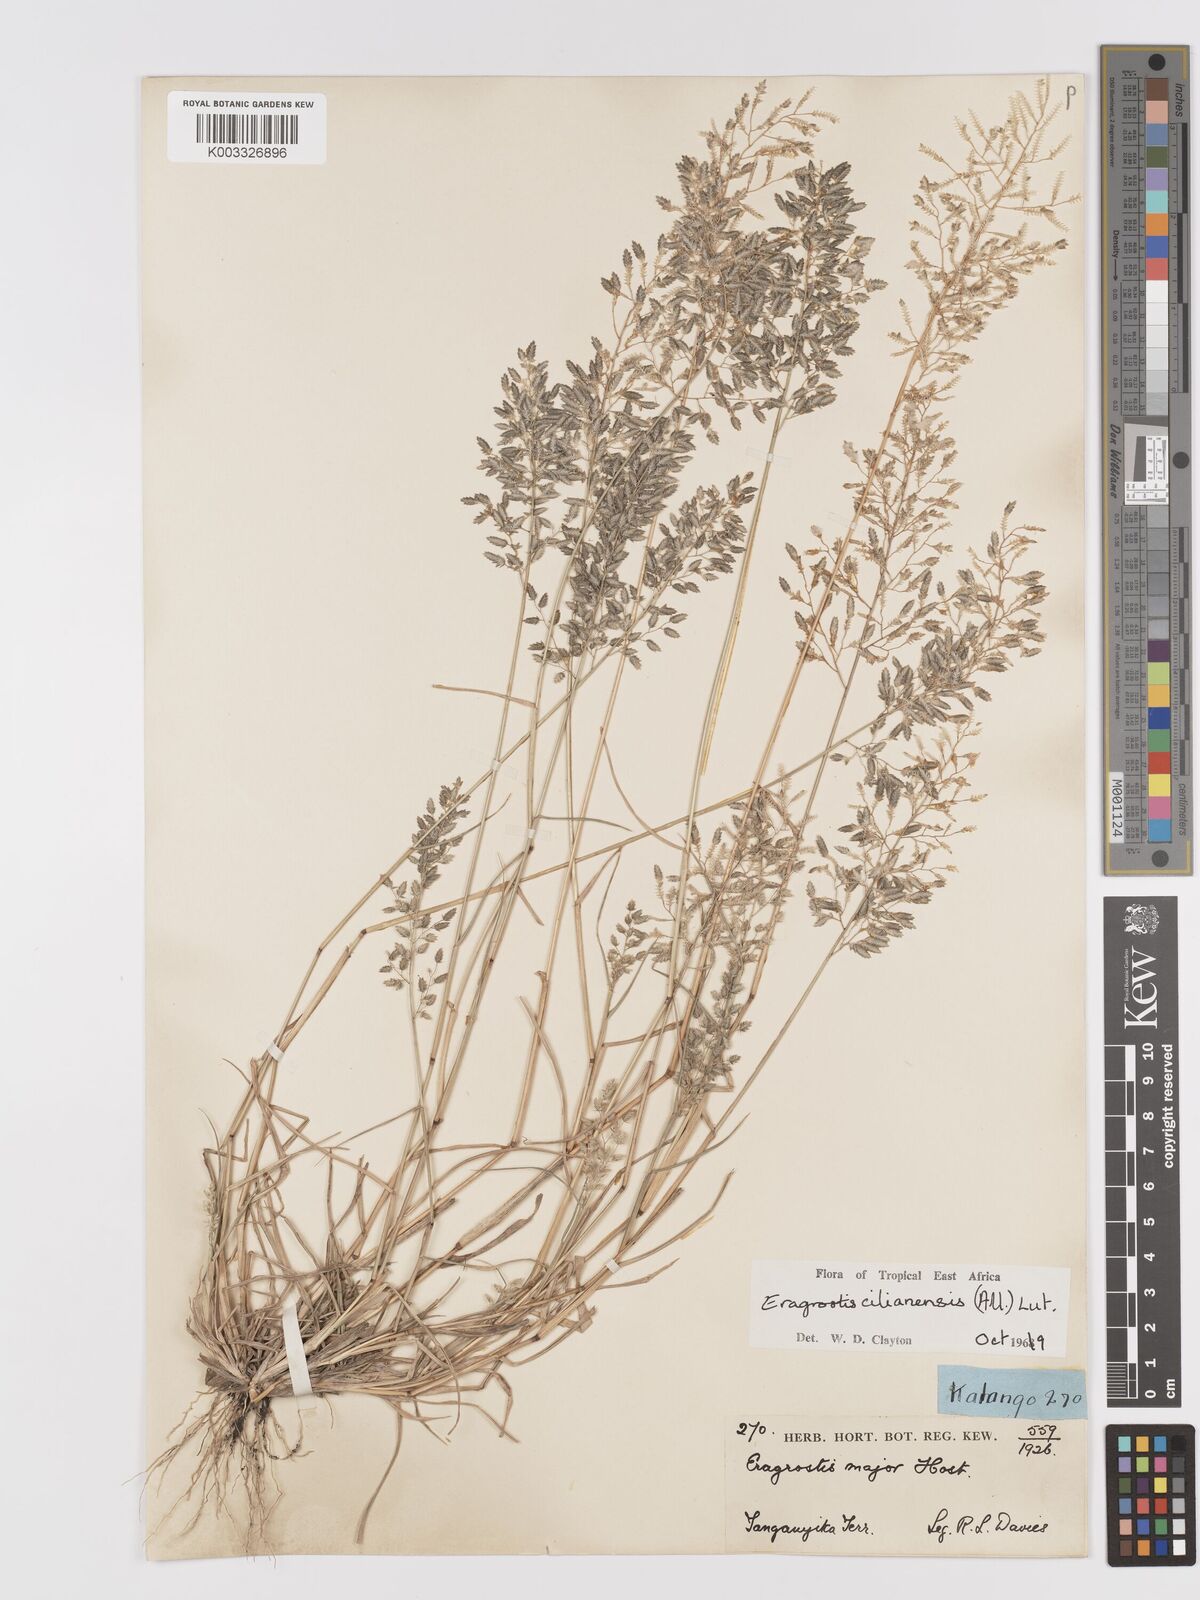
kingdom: Plantae
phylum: Tracheophyta
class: Liliopsida
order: Poales
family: Poaceae
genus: Eragrostis
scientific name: Eragrostis cilianensis
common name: Stinkgrass
